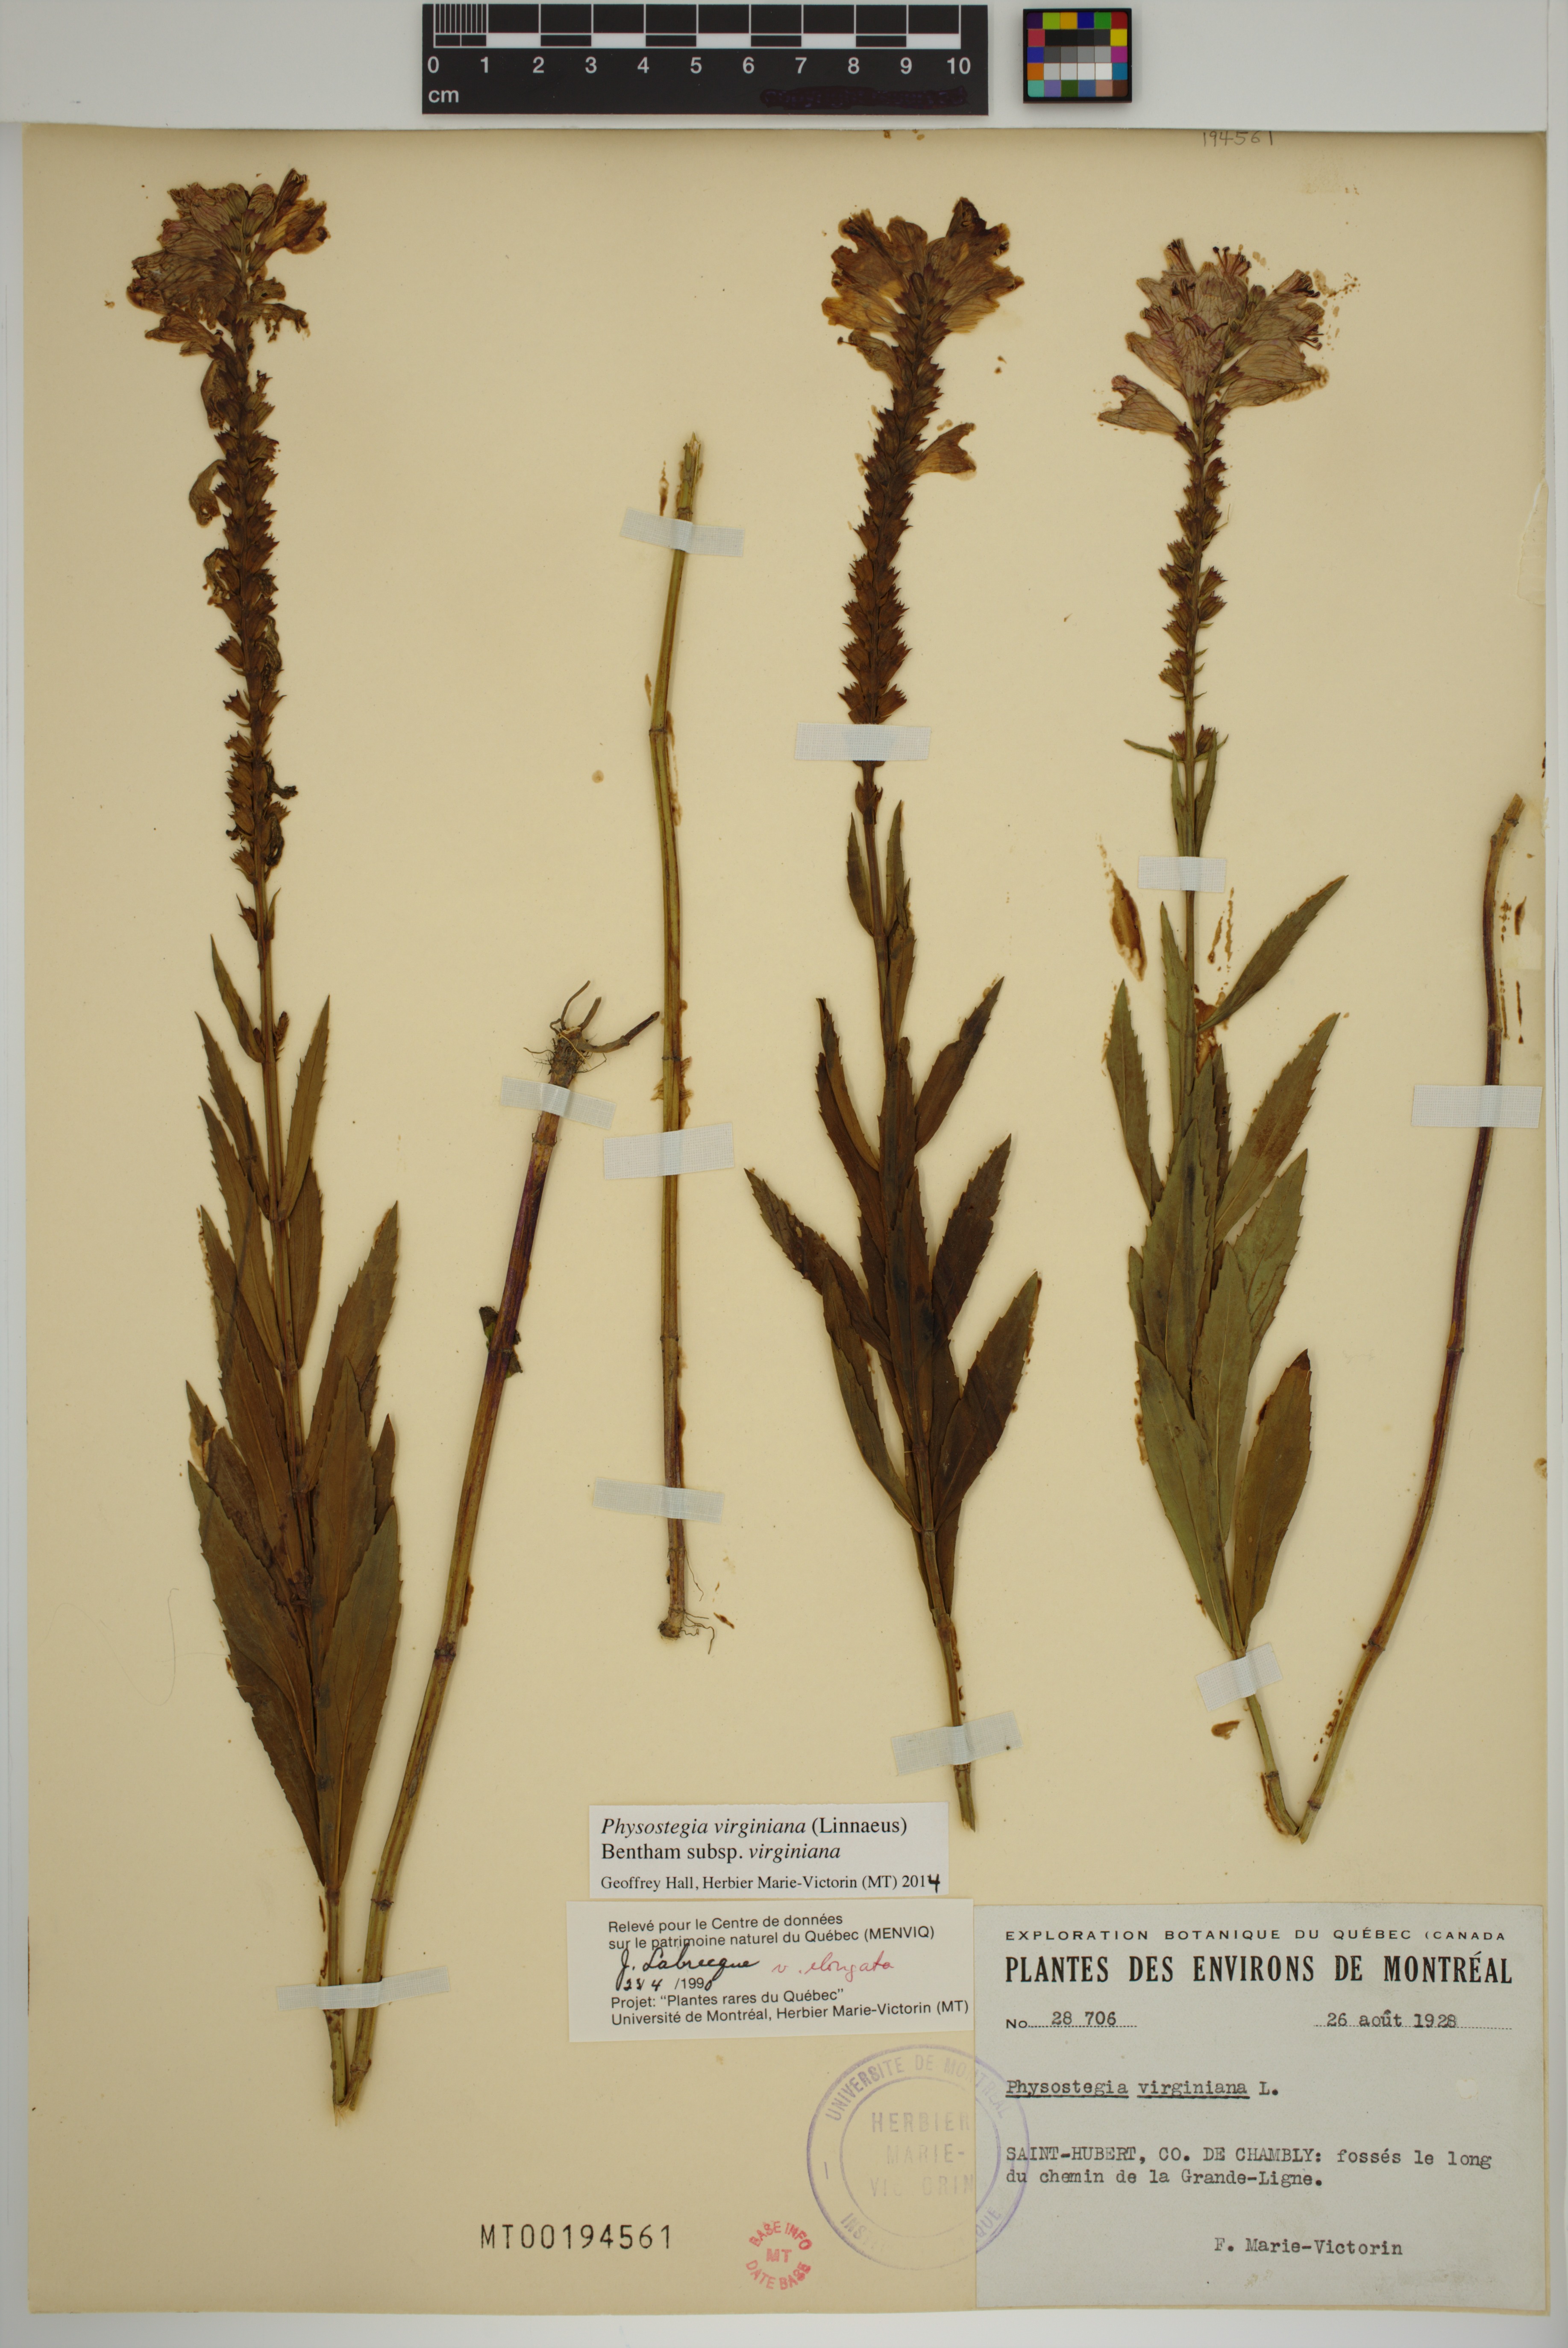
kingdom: Plantae
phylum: Tracheophyta
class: Magnoliopsida
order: Lamiales
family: Lamiaceae
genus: Physostegia
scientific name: Physostegia virginiana
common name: Obedient-plant
